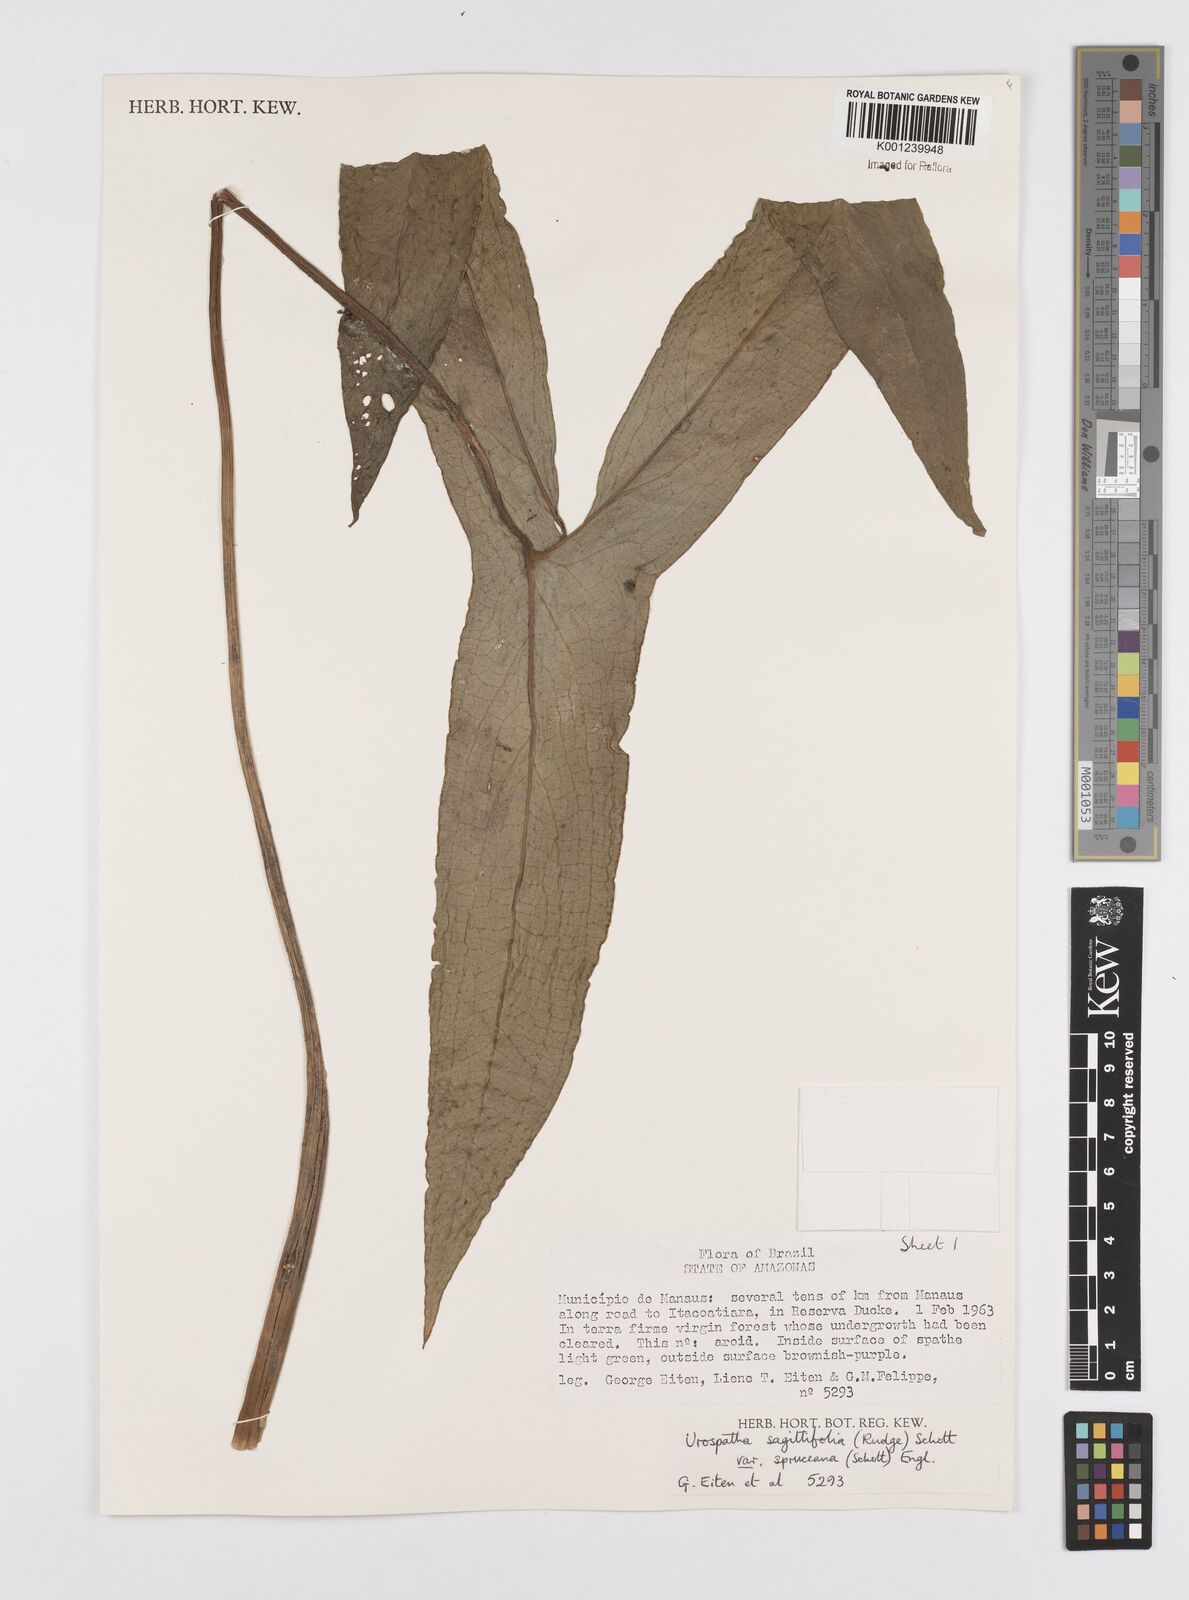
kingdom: Plantae
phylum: Tracheophyta
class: Liliopsida
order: Alismatales
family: Araceae
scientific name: Araceae
